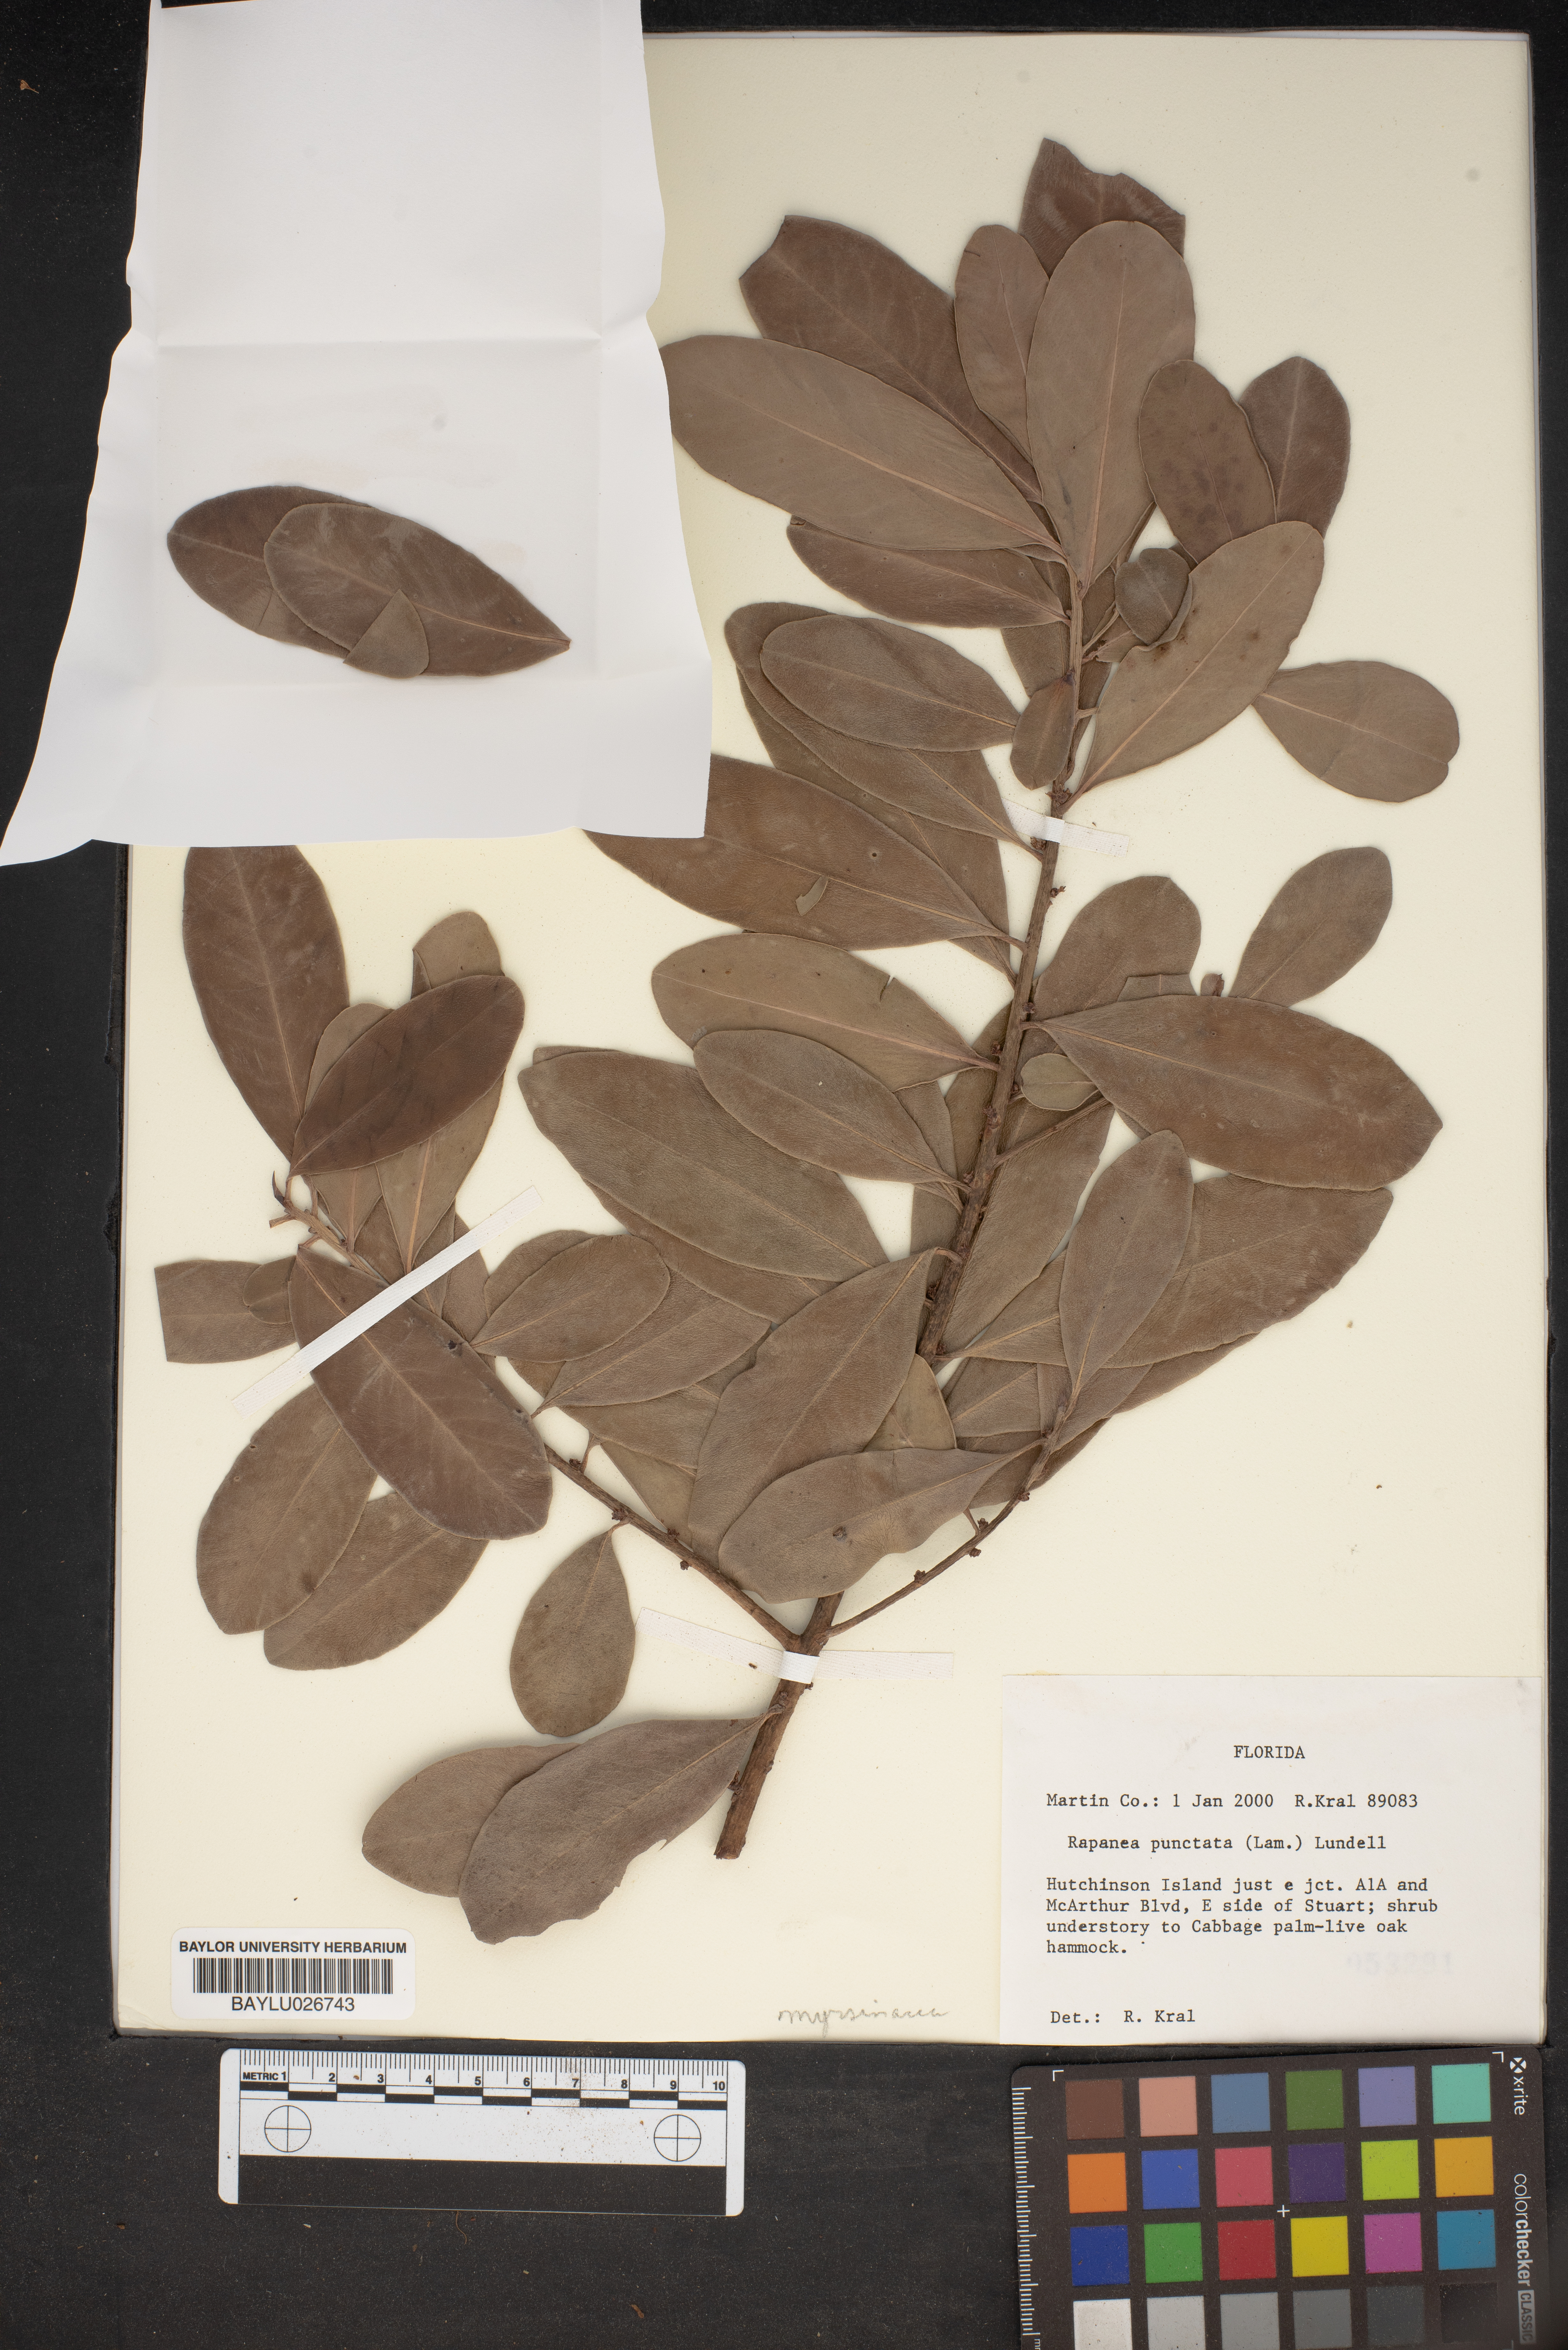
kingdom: Plantae
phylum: Tracheophyta
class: Magnoliopsida
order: Ericales
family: Primulaceae
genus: Myrsine
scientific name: Myrsine floridana
